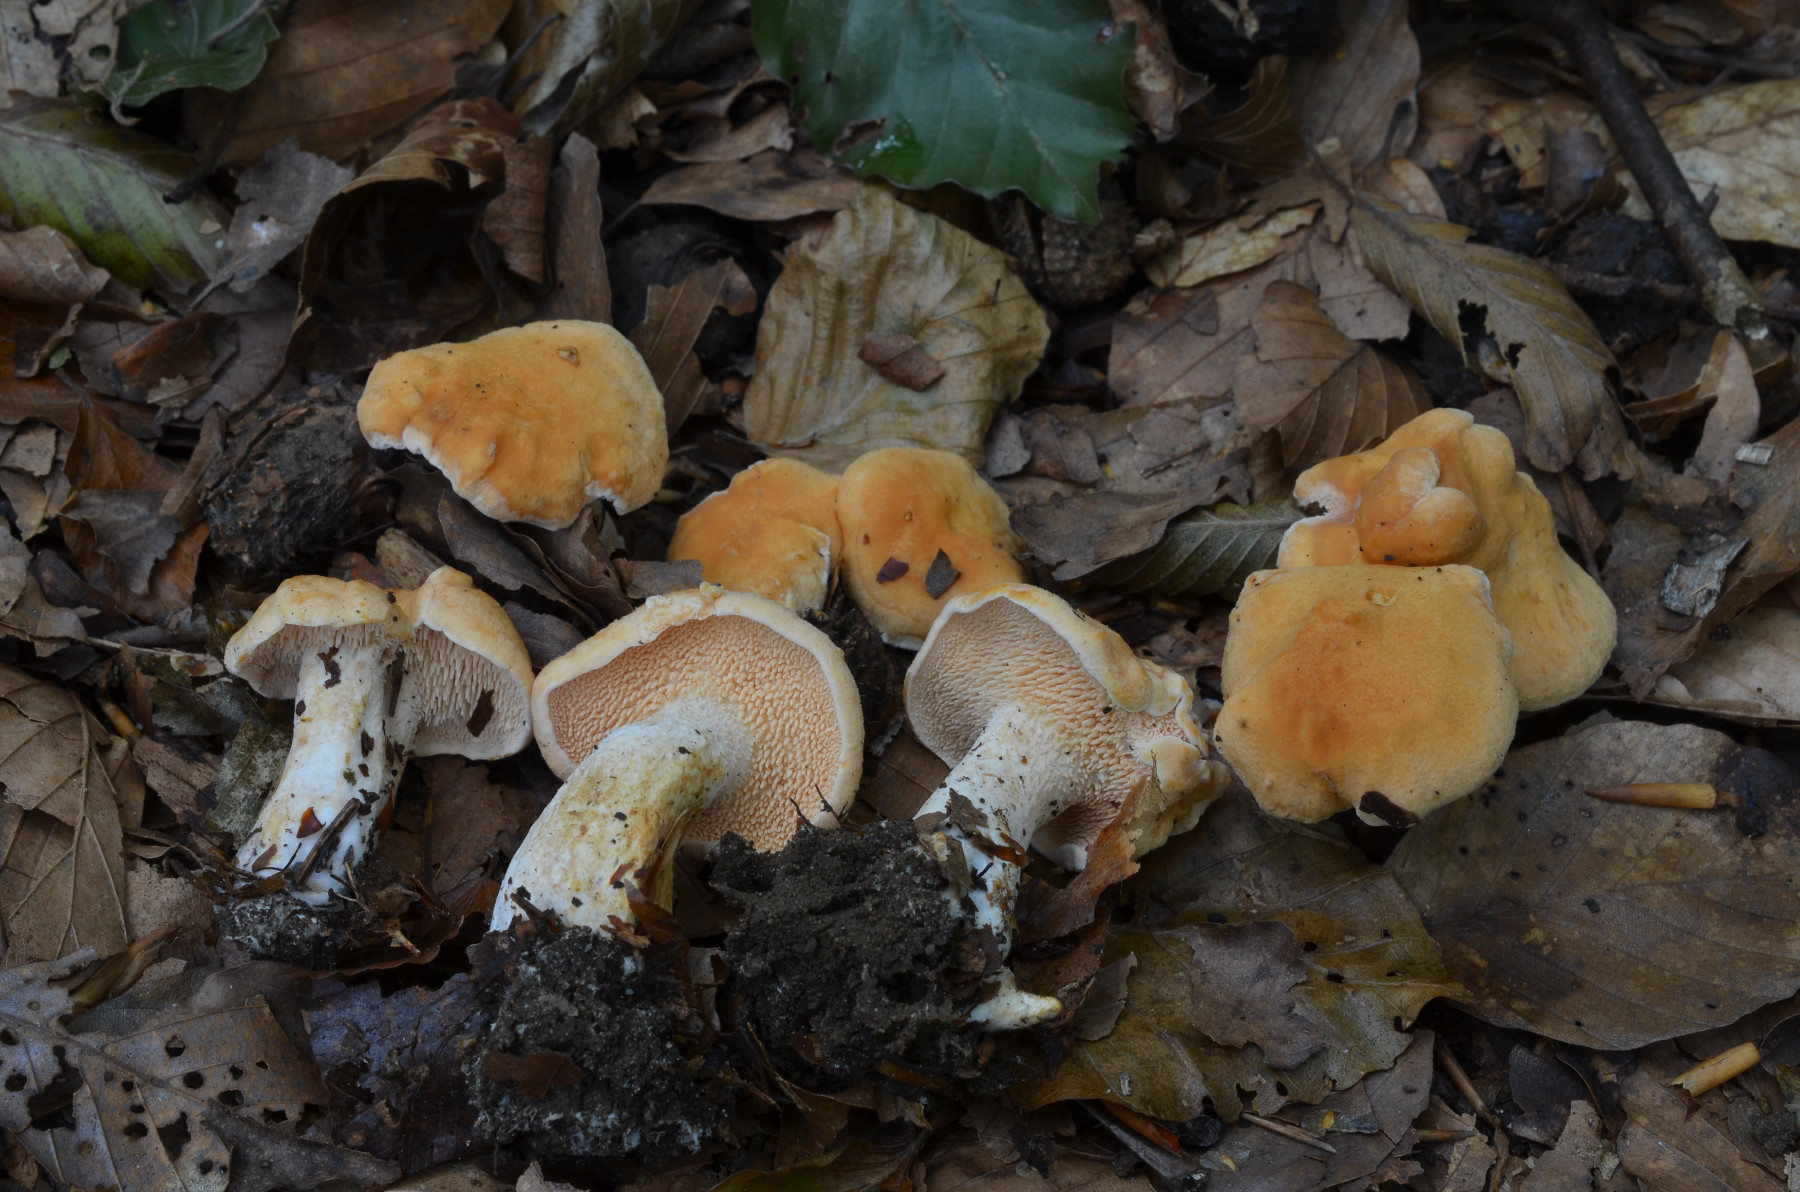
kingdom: Fungi
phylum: Basidiomycota
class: Agaricomycetes
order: Cantharellales
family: Hydnaceae
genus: Hydnum
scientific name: Hydnum ellipsosporum
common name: tandet pigsvamp
